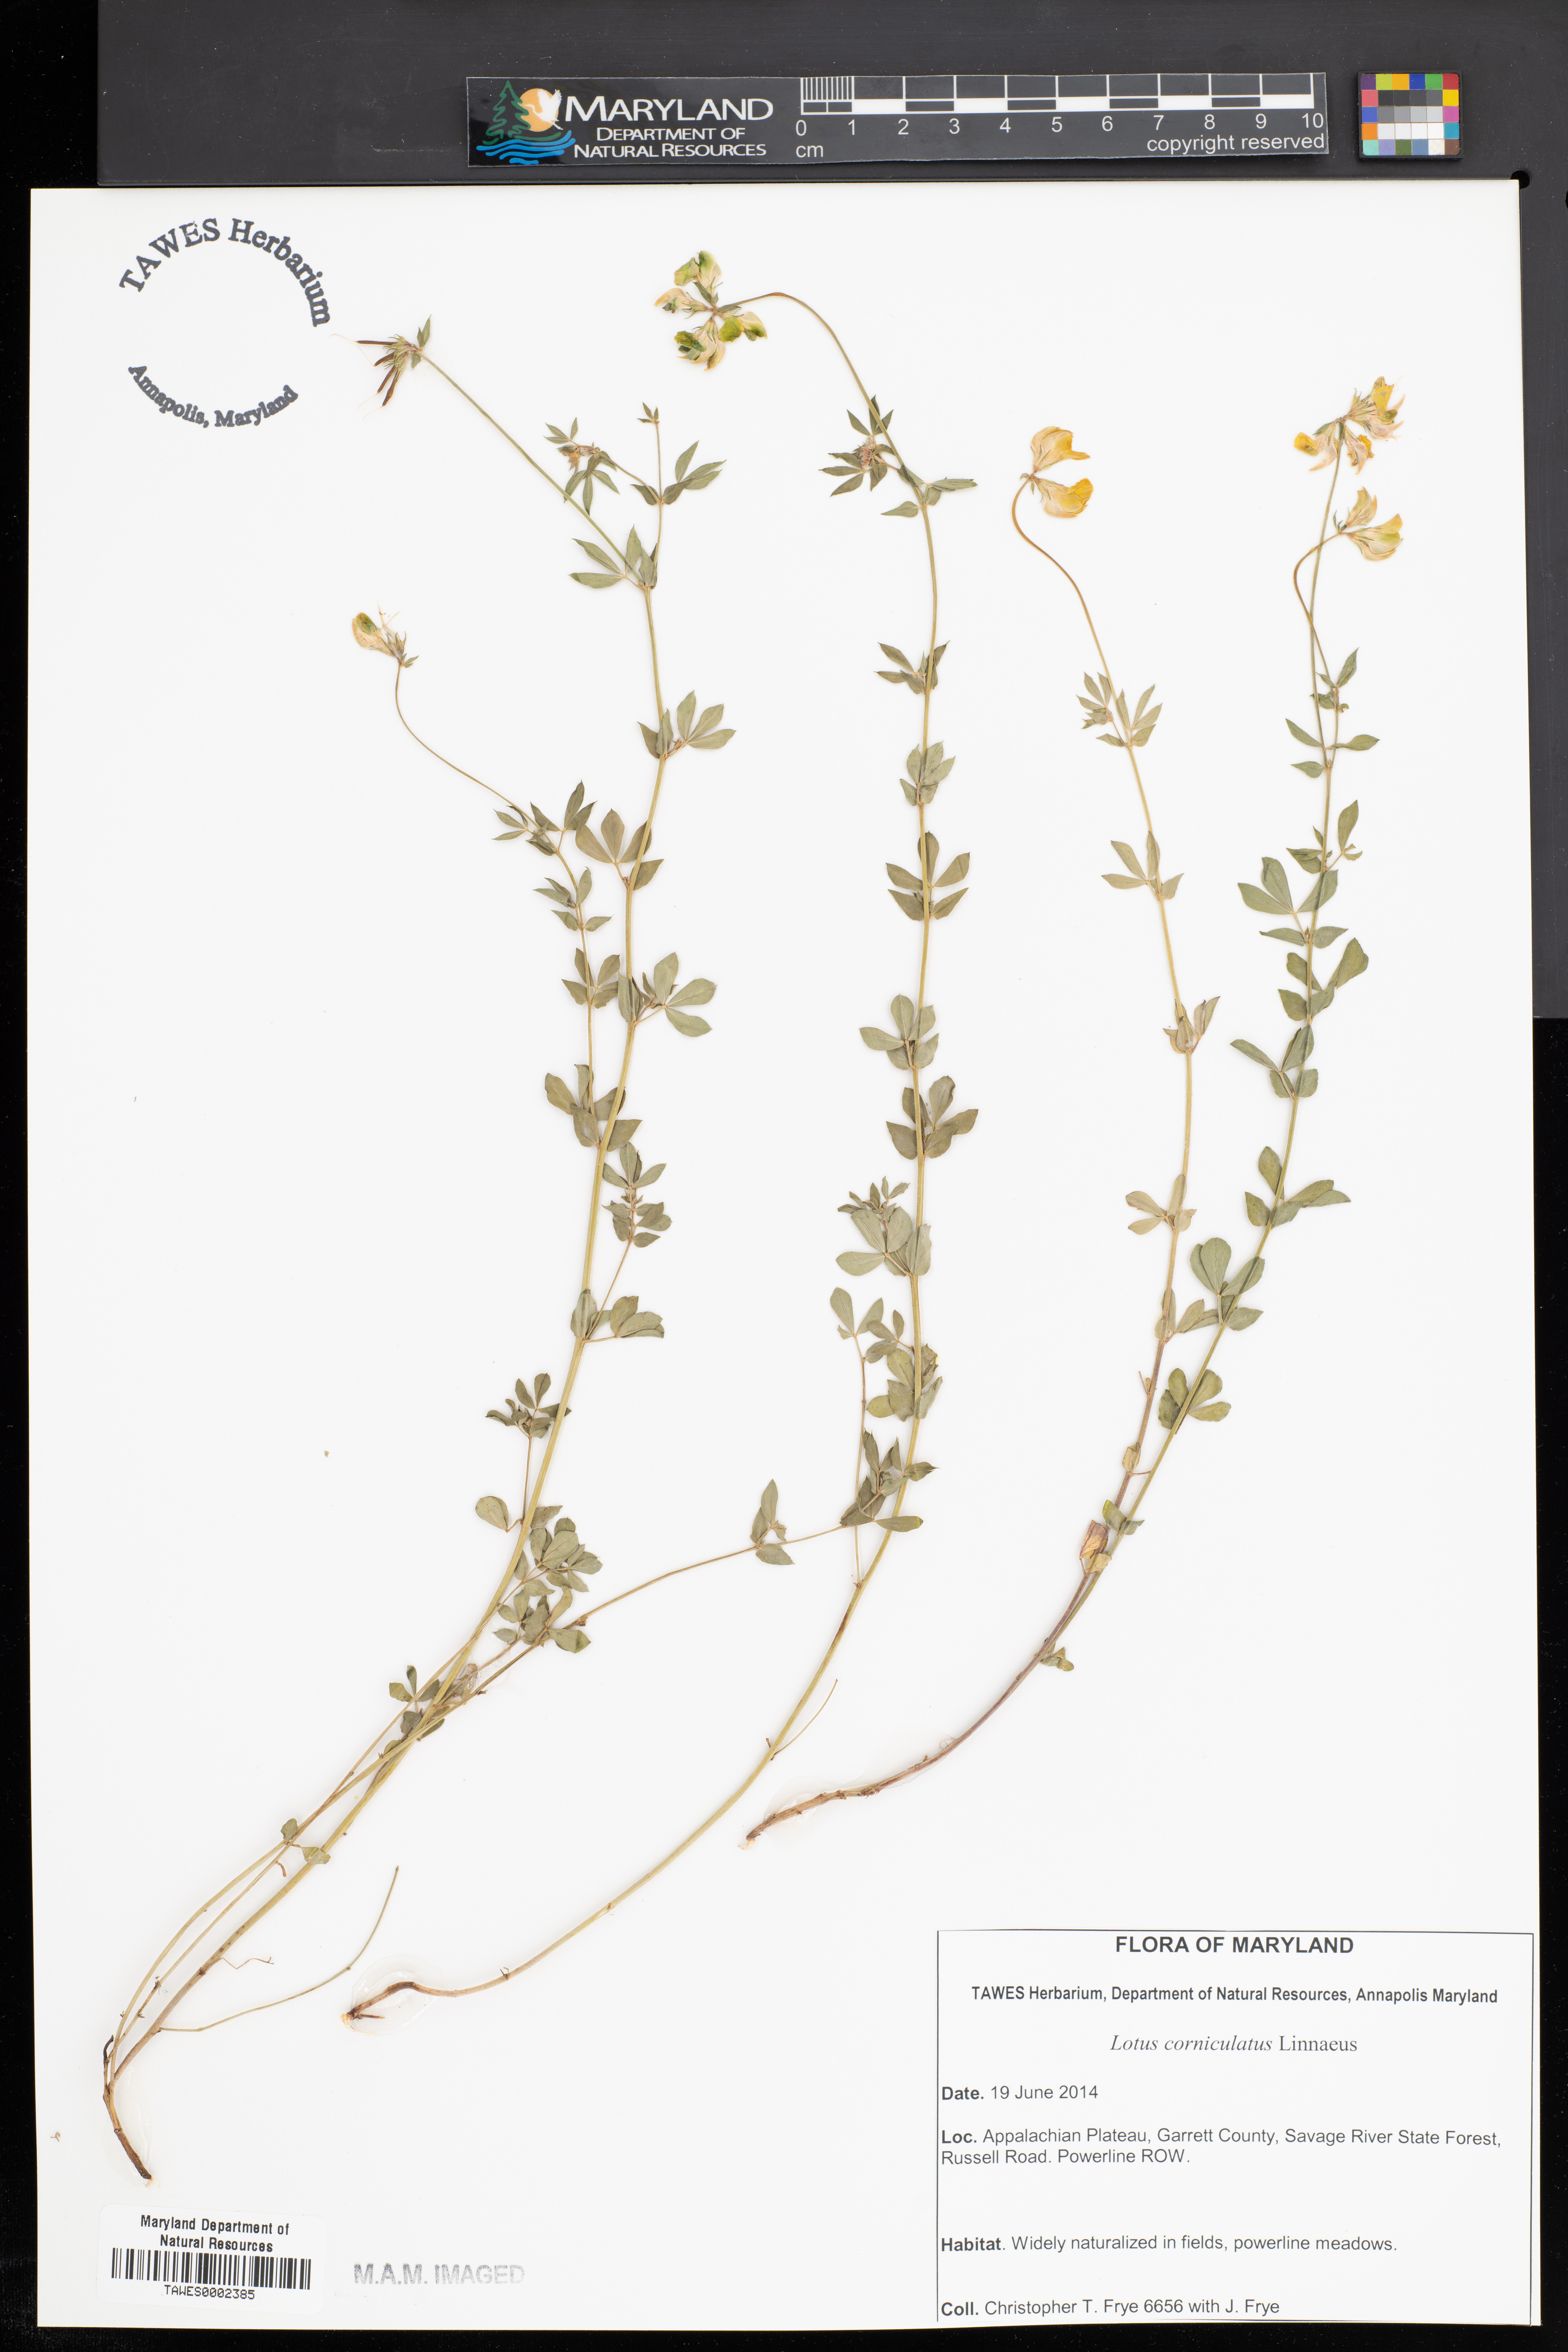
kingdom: Plantae
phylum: Tracheophyta
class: Magnoliopsida
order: Fabales
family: Fabaceae
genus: Lotus
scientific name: Lotus corniculatus
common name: Common bird's-foot-trefoil
